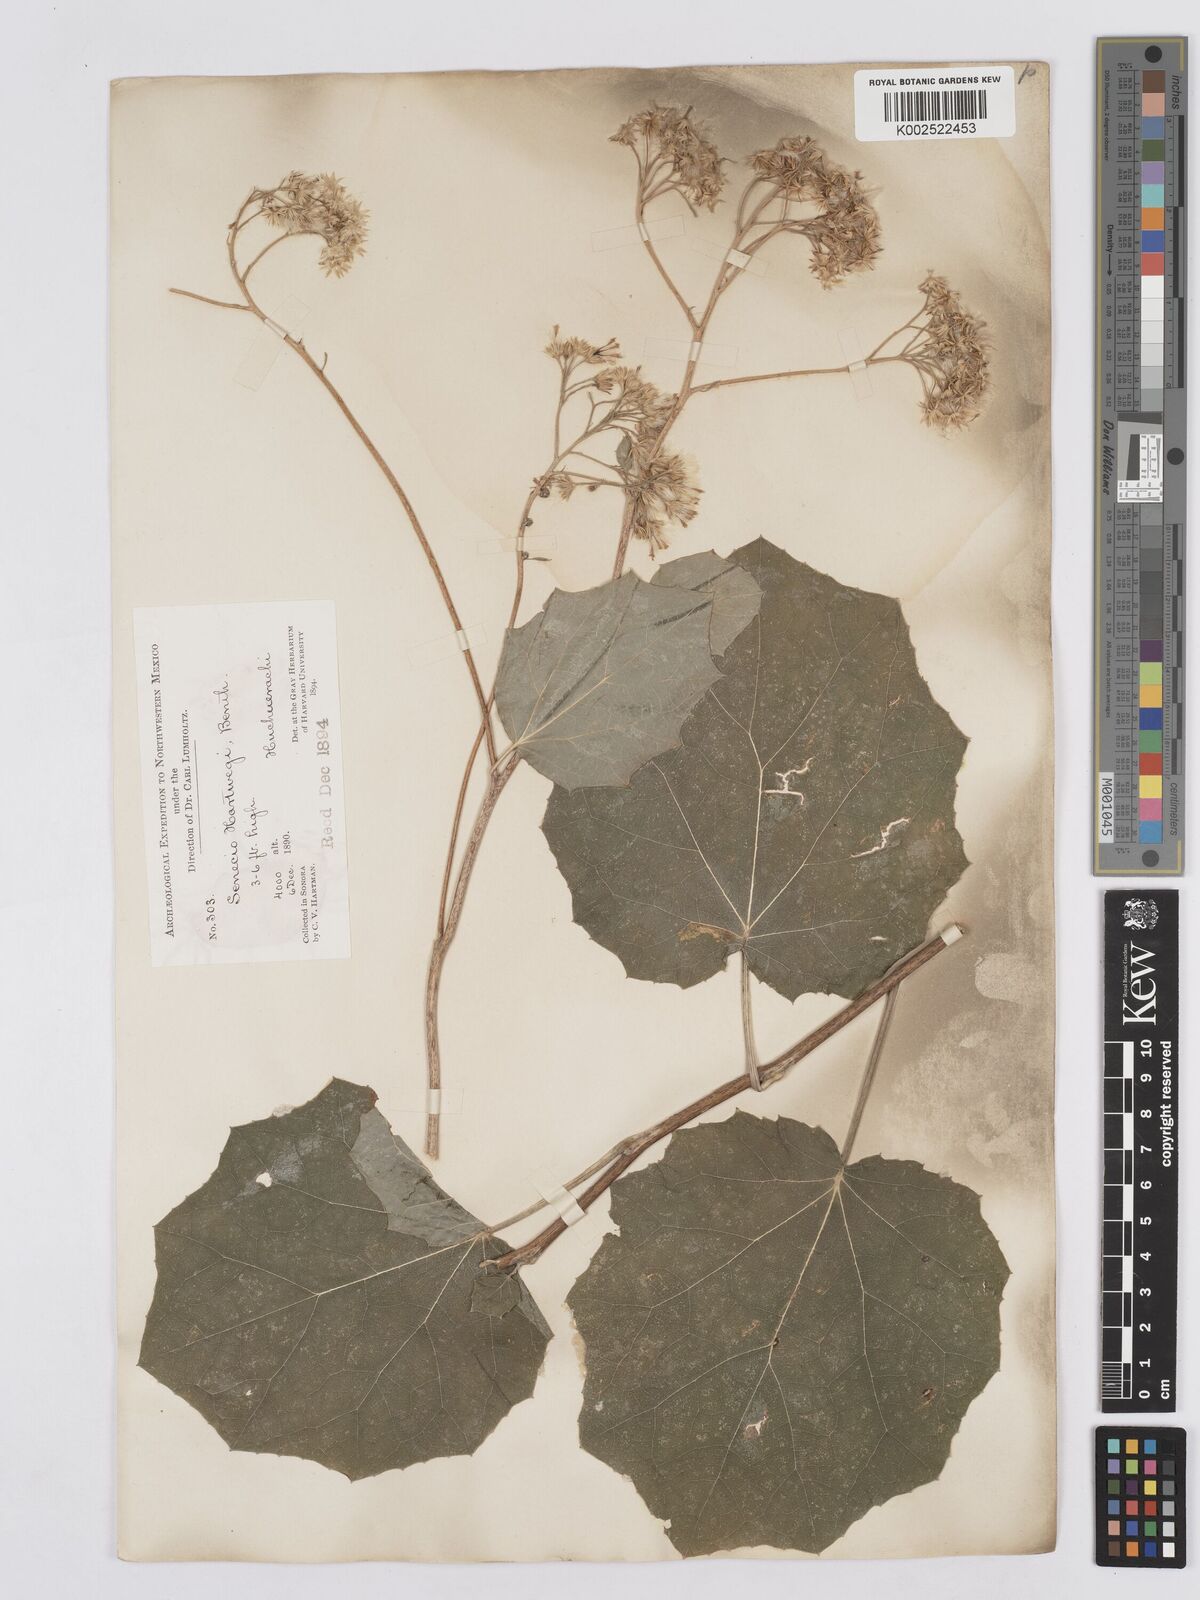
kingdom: Plantae
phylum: Tracheophyta
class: Magnoliopsida
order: Asterales
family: Asteraceae
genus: Roldana
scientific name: Roldana hartwegii
